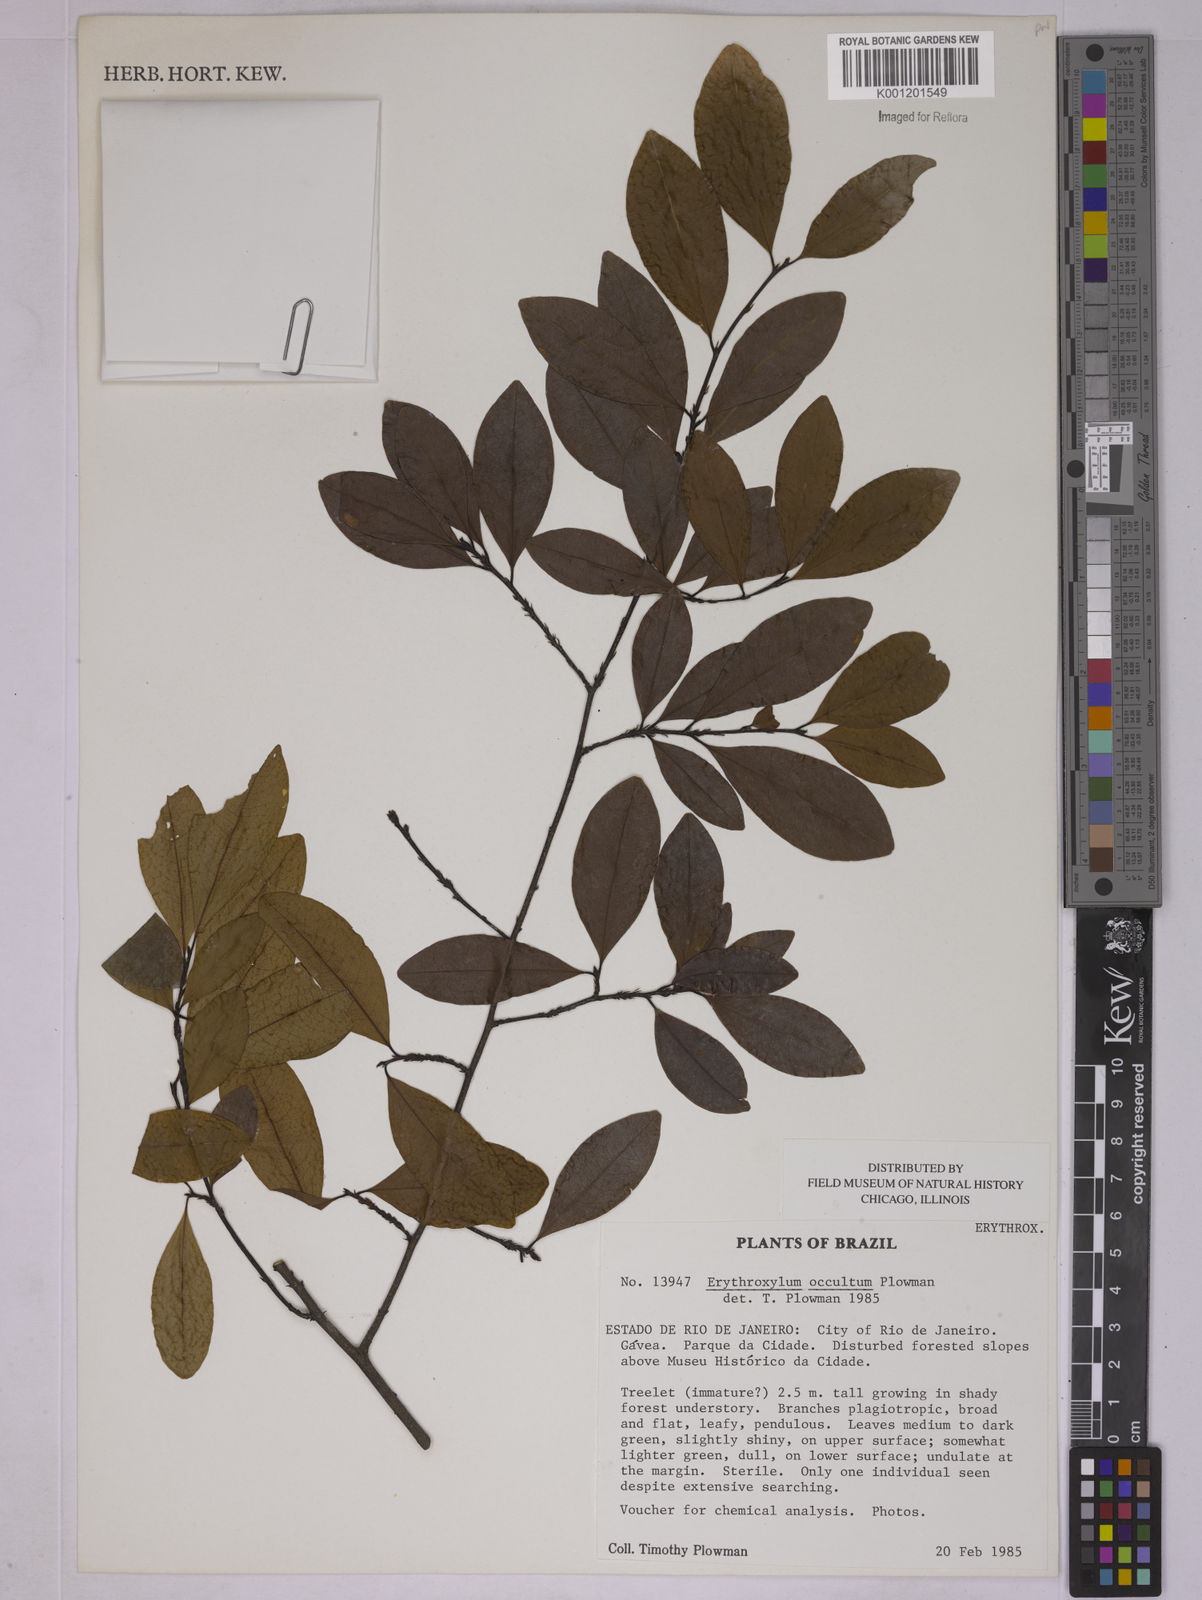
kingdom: Plantae
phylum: Tracheophyta
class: Magnoliopsida
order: Malpighiales
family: Erythroxylaceae
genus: Erythroxylum
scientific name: Erythroxylum occultum
